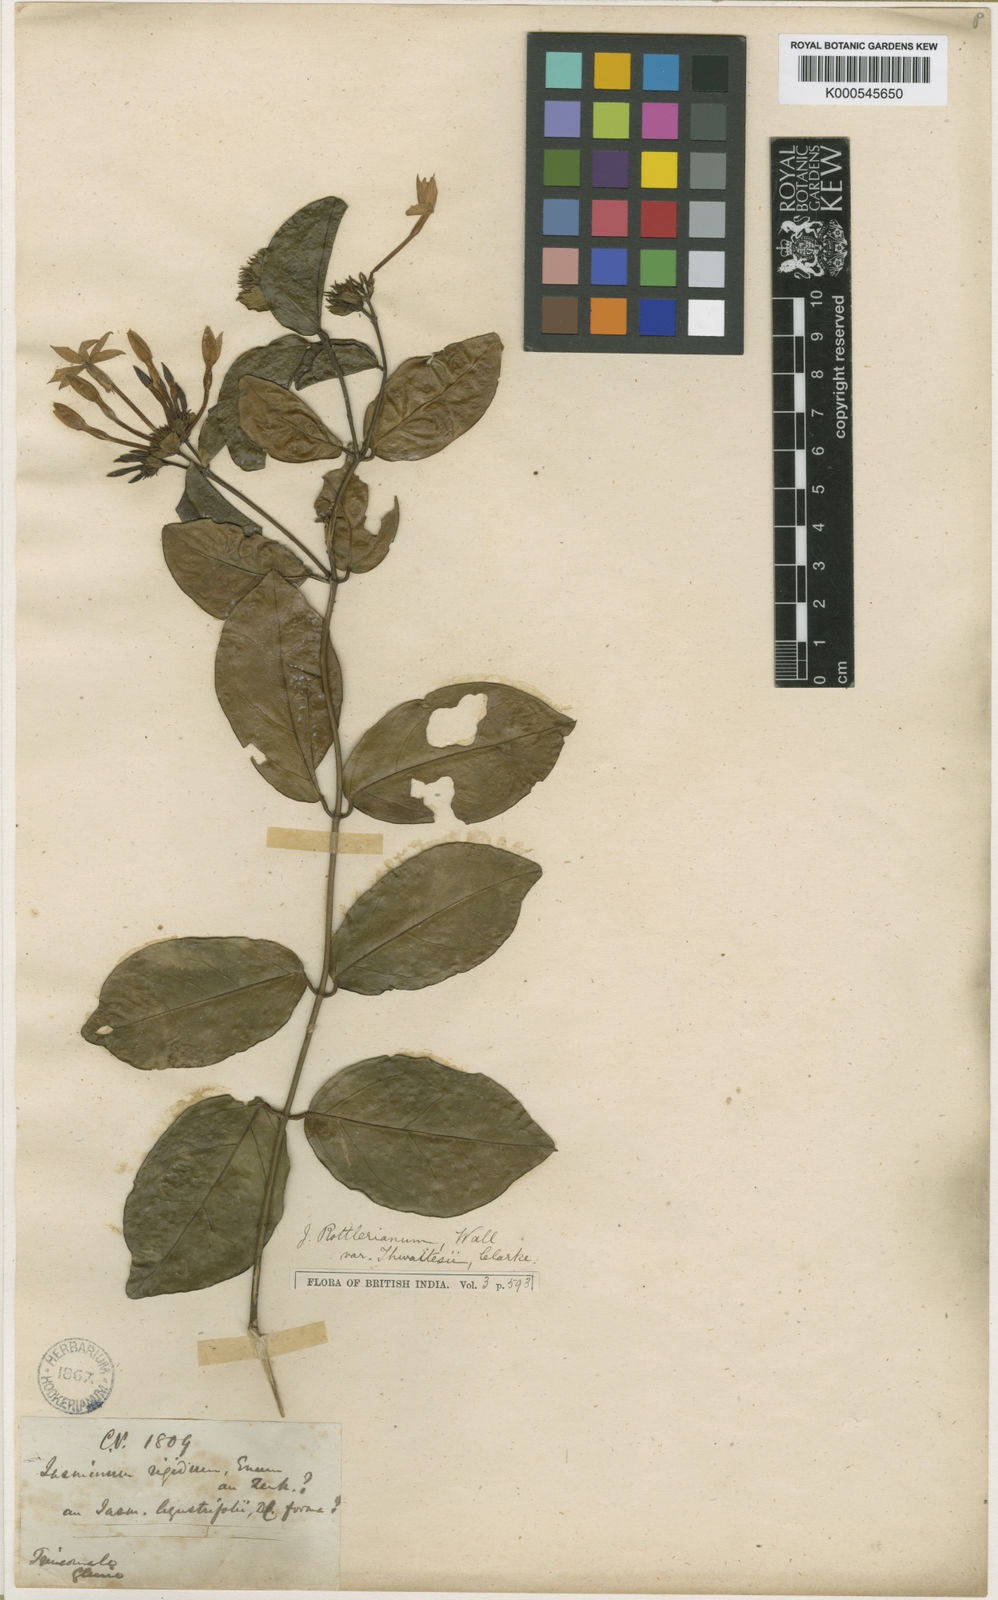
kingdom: Plantae
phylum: Tracheophyta
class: Magnoliopsida
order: Lamiales
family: Oleaceae
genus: Jasminum
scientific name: Jasminum coarctatum
